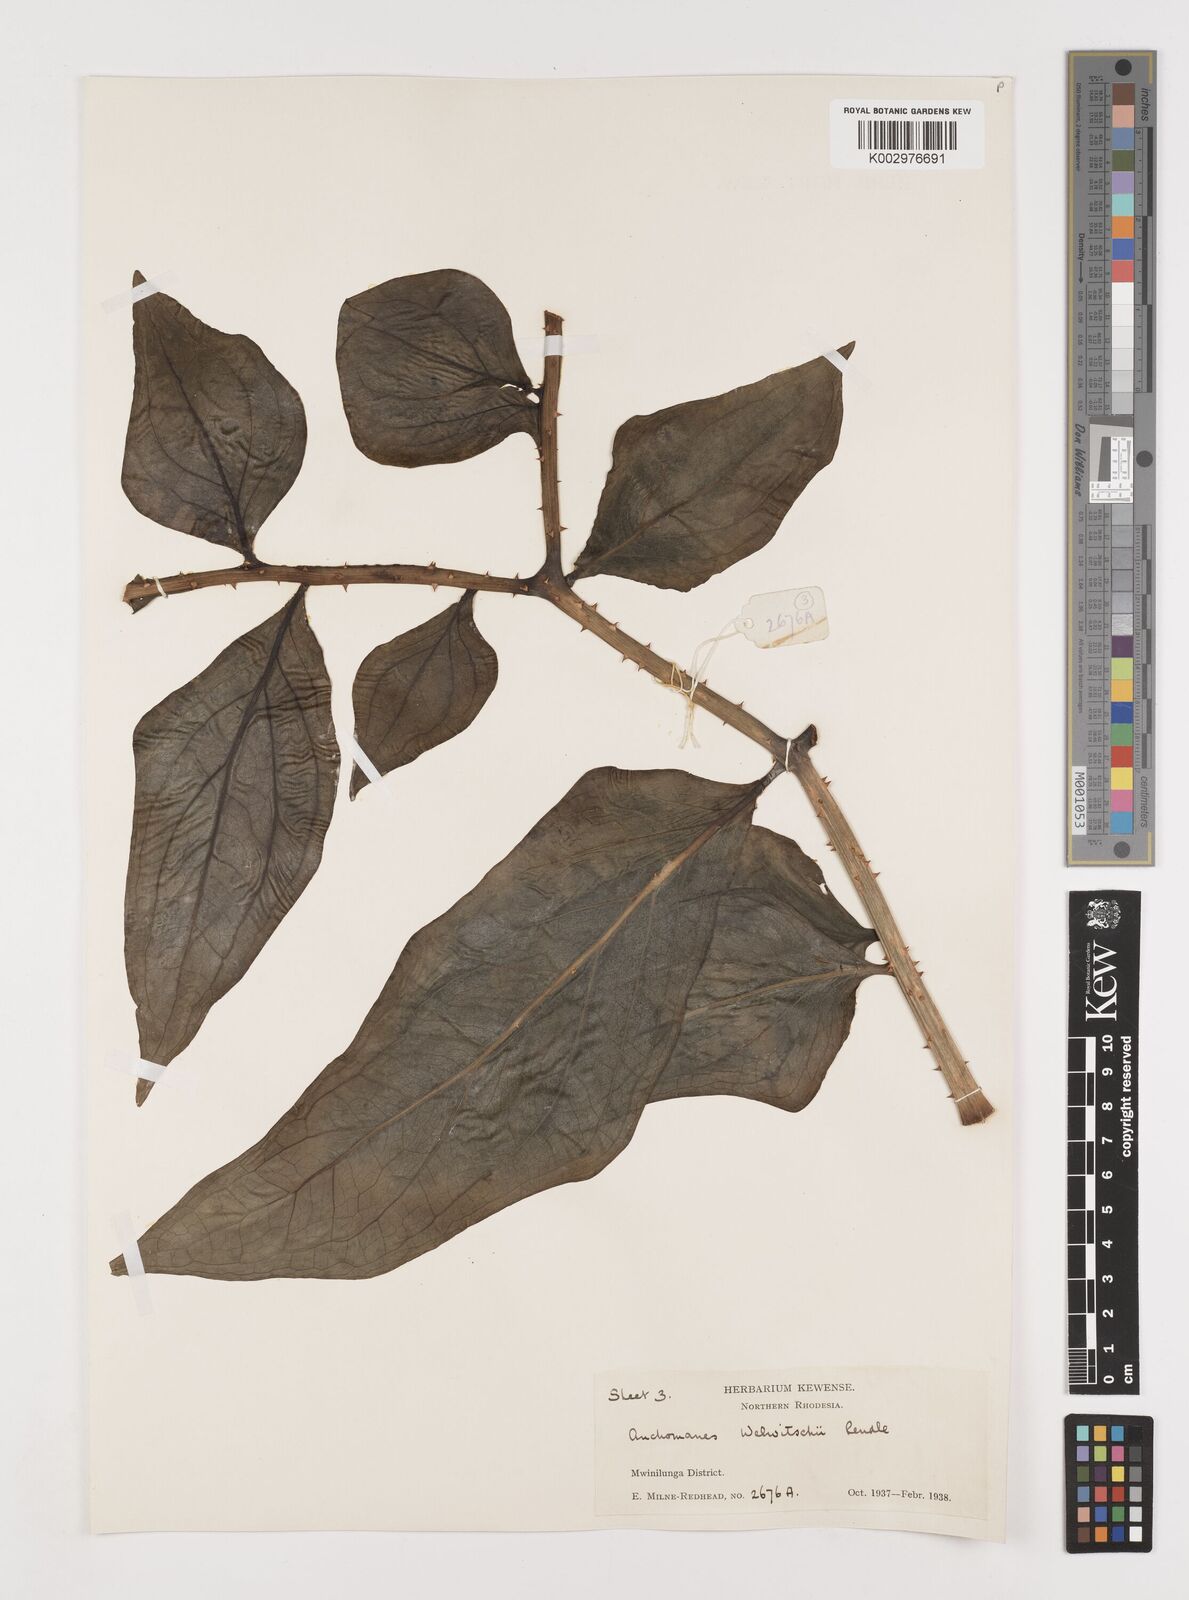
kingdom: Plantae
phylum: Tracheophyta
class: Liliopsida
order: Alismatales
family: Araceae
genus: Anchomanes
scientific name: Anchomanes difformis
